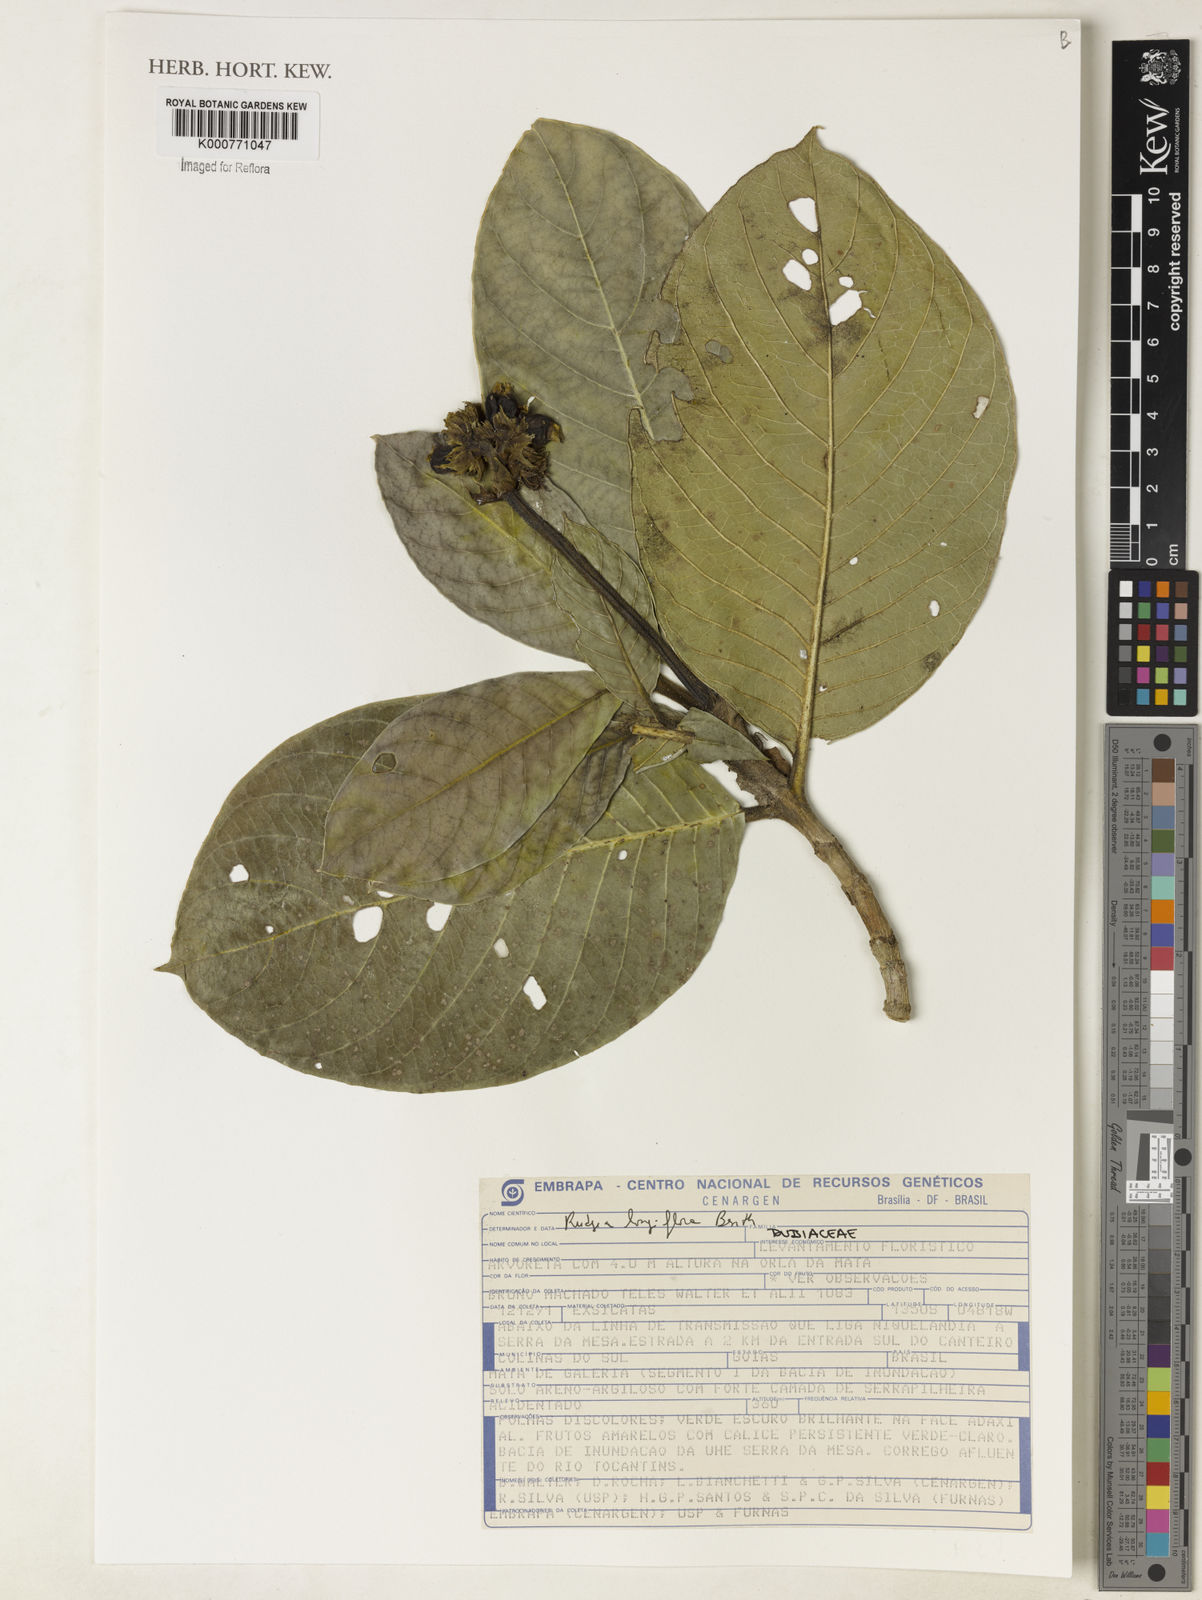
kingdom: Plantae
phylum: Tracheophyta
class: Magnoliopsida
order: Gentianales
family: Rubiaceae
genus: Rudgea
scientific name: Rudgea longiflora
